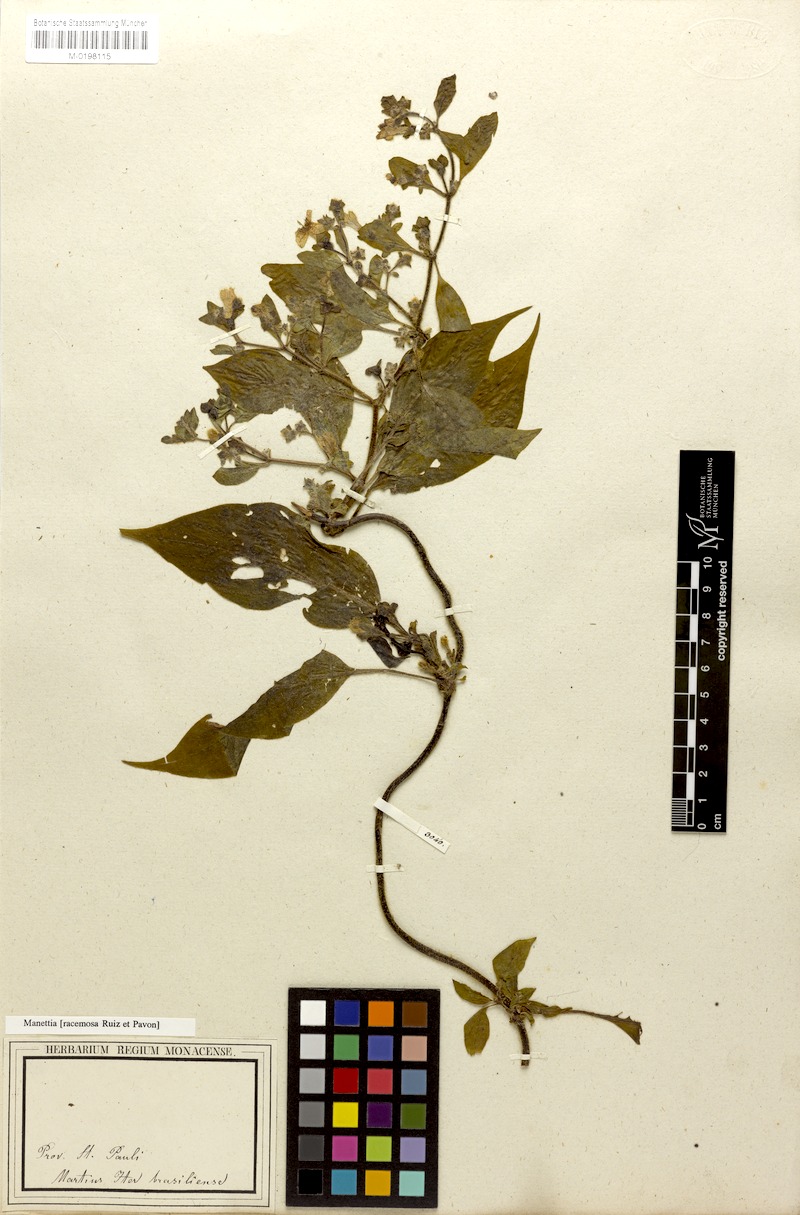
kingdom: Plantae
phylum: Tracheophyta
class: Magnoliopsida
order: Gentianales
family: Rubiaceae
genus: Manettia
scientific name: Manettia racemosa
